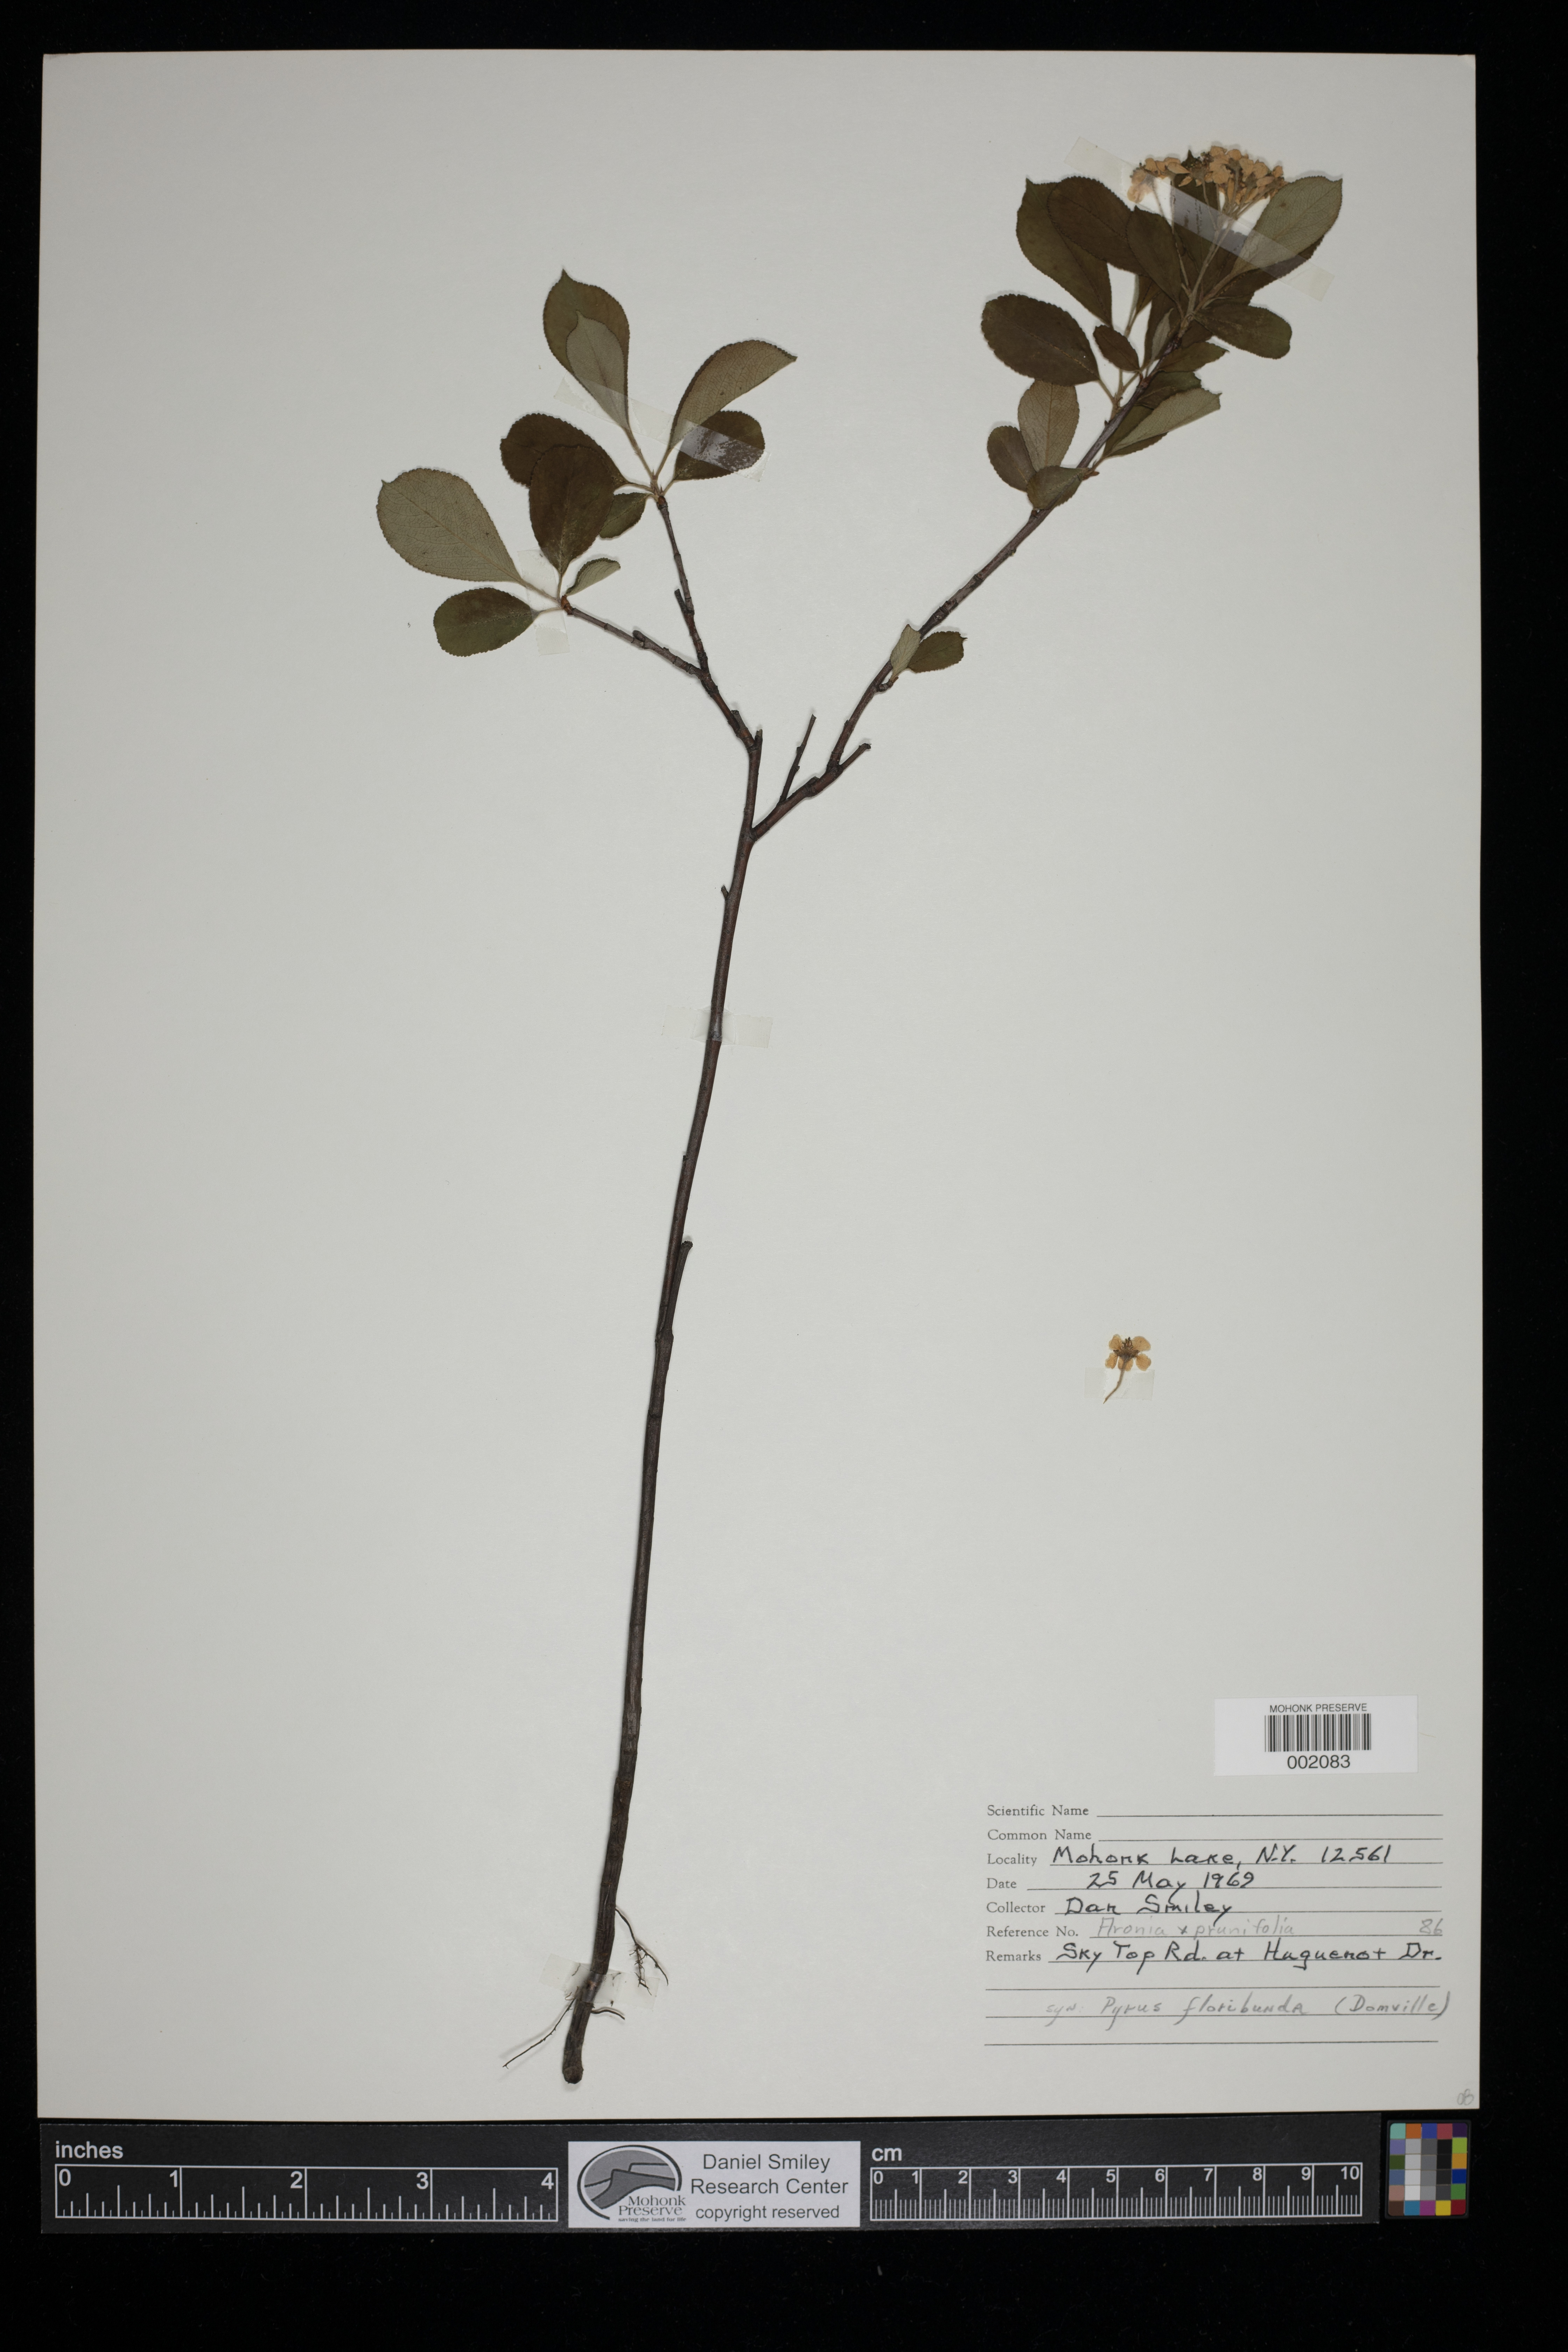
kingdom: Plantae
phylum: Tracheophyta
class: Magnoliopsida
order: Rosales
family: Rosaceae
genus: Aronia
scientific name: Aronia prunifolia
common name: Purple chokeberry
